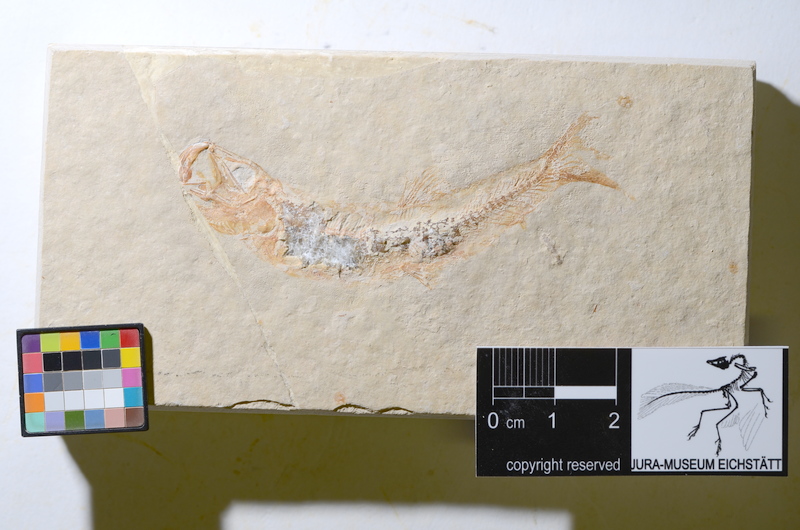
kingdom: Animalia
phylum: Chordata
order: Salmoniformes
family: Orthogonikleithridae
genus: Leptolepides
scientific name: Leptolepides sprattiformis
